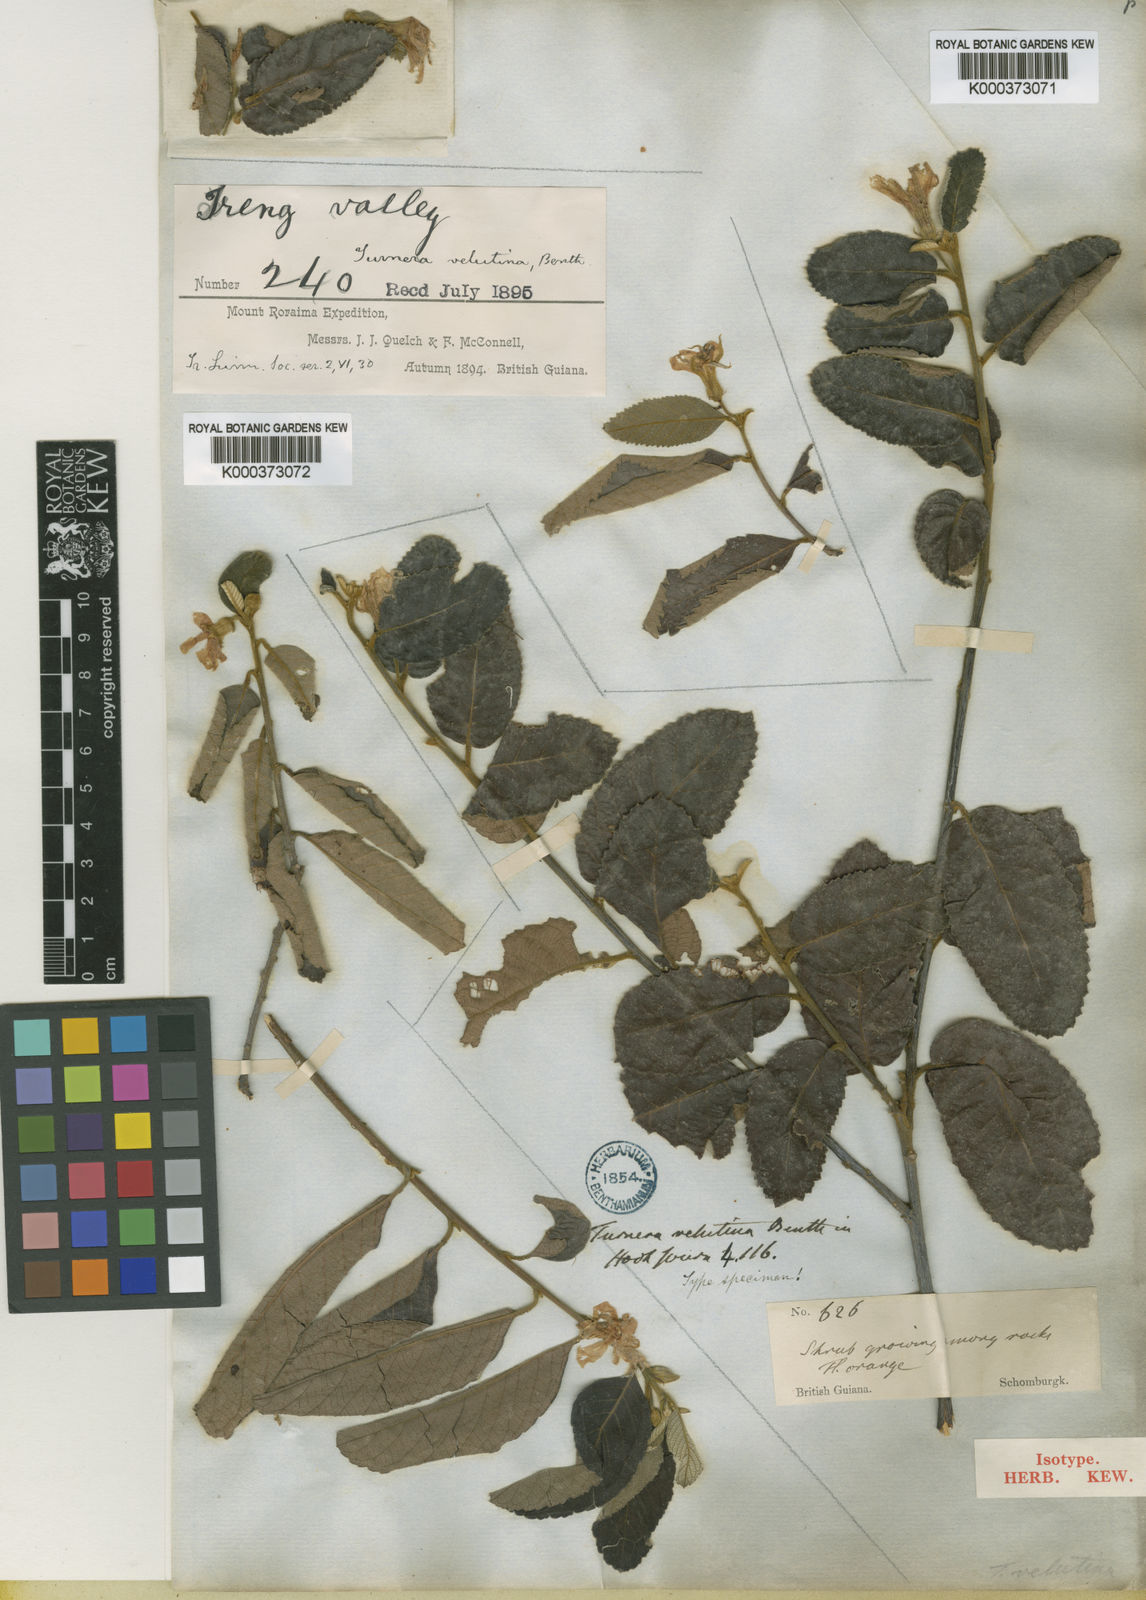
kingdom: Plantae
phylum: Tracheophyta
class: Magnoliopsida
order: Malpighiales
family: Turneraceae
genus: Turnera
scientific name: Turnera blanchetiana
